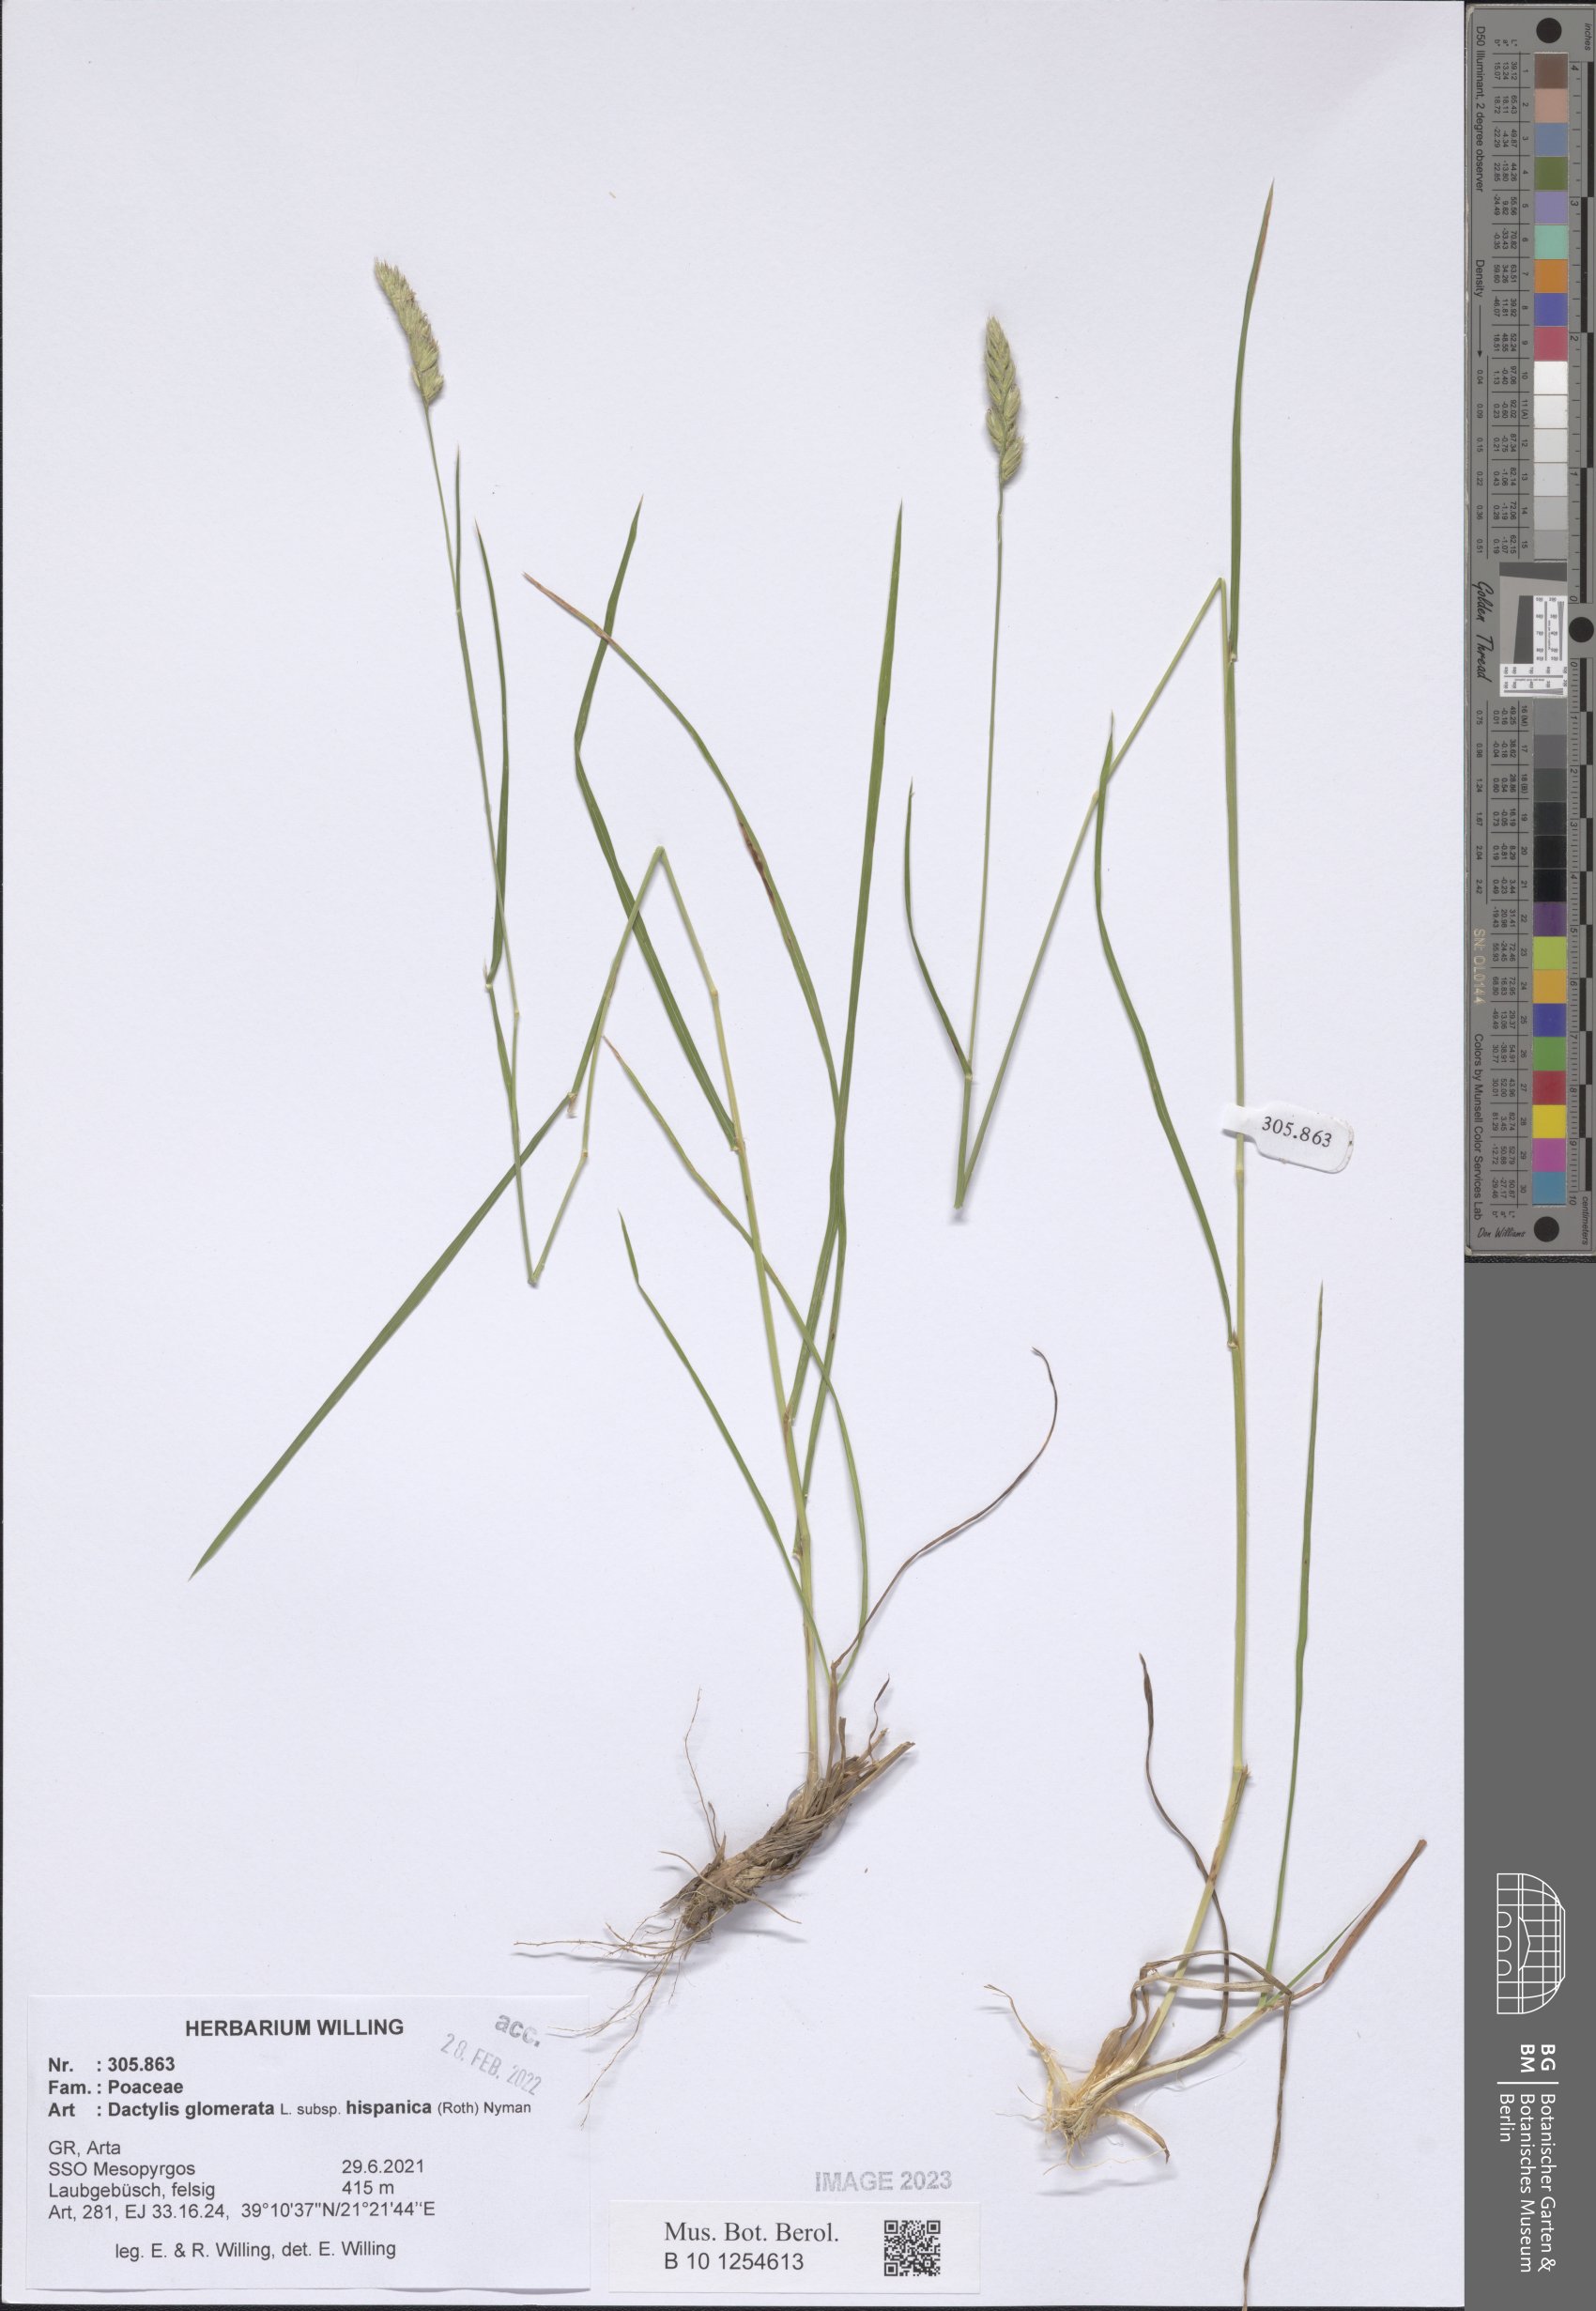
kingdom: Plantae
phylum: Tracheophyta
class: Liliopsida
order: Poales
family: Poaceae
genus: Dactylis
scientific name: Dactylis glomerata
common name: Orchardgrass
